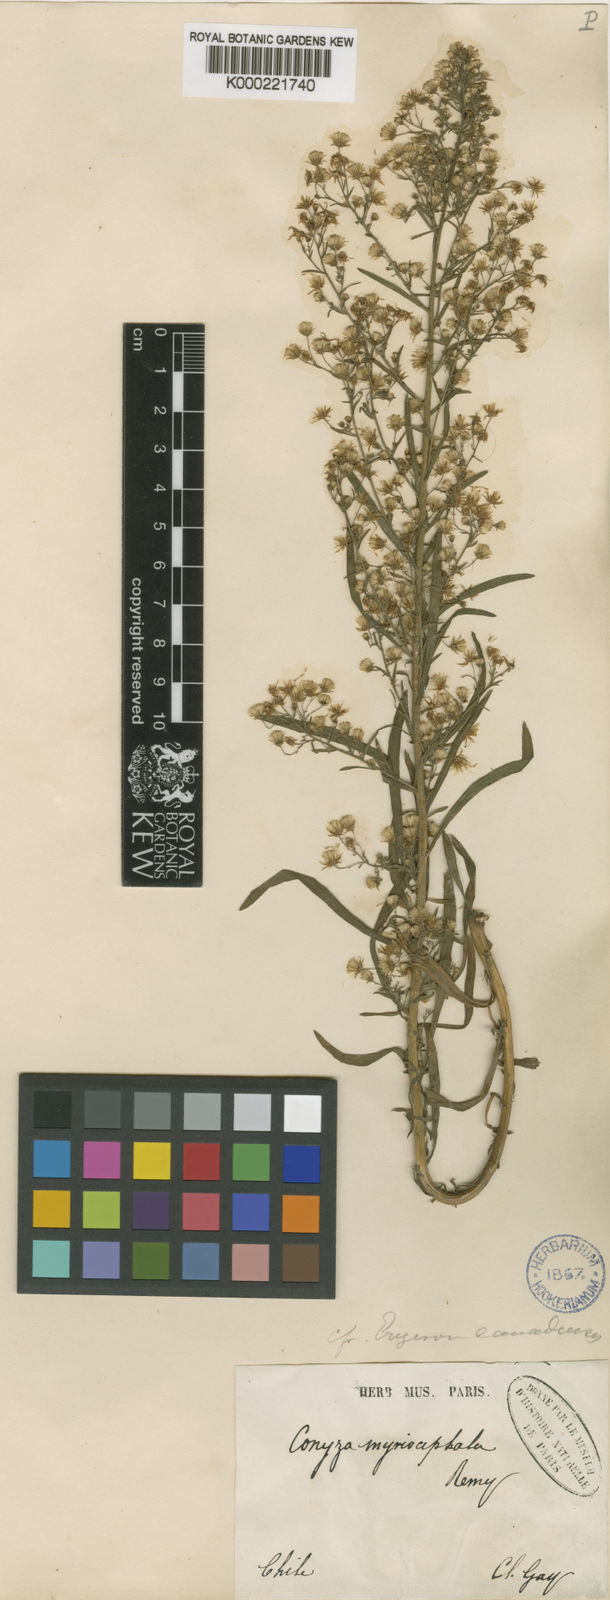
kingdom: Plantae
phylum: Tracheophyta
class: Magnoliopsida
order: Asterales
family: Asteraceae
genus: Erigeron
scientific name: Erigeron canadensis
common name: Canadian fleabane
